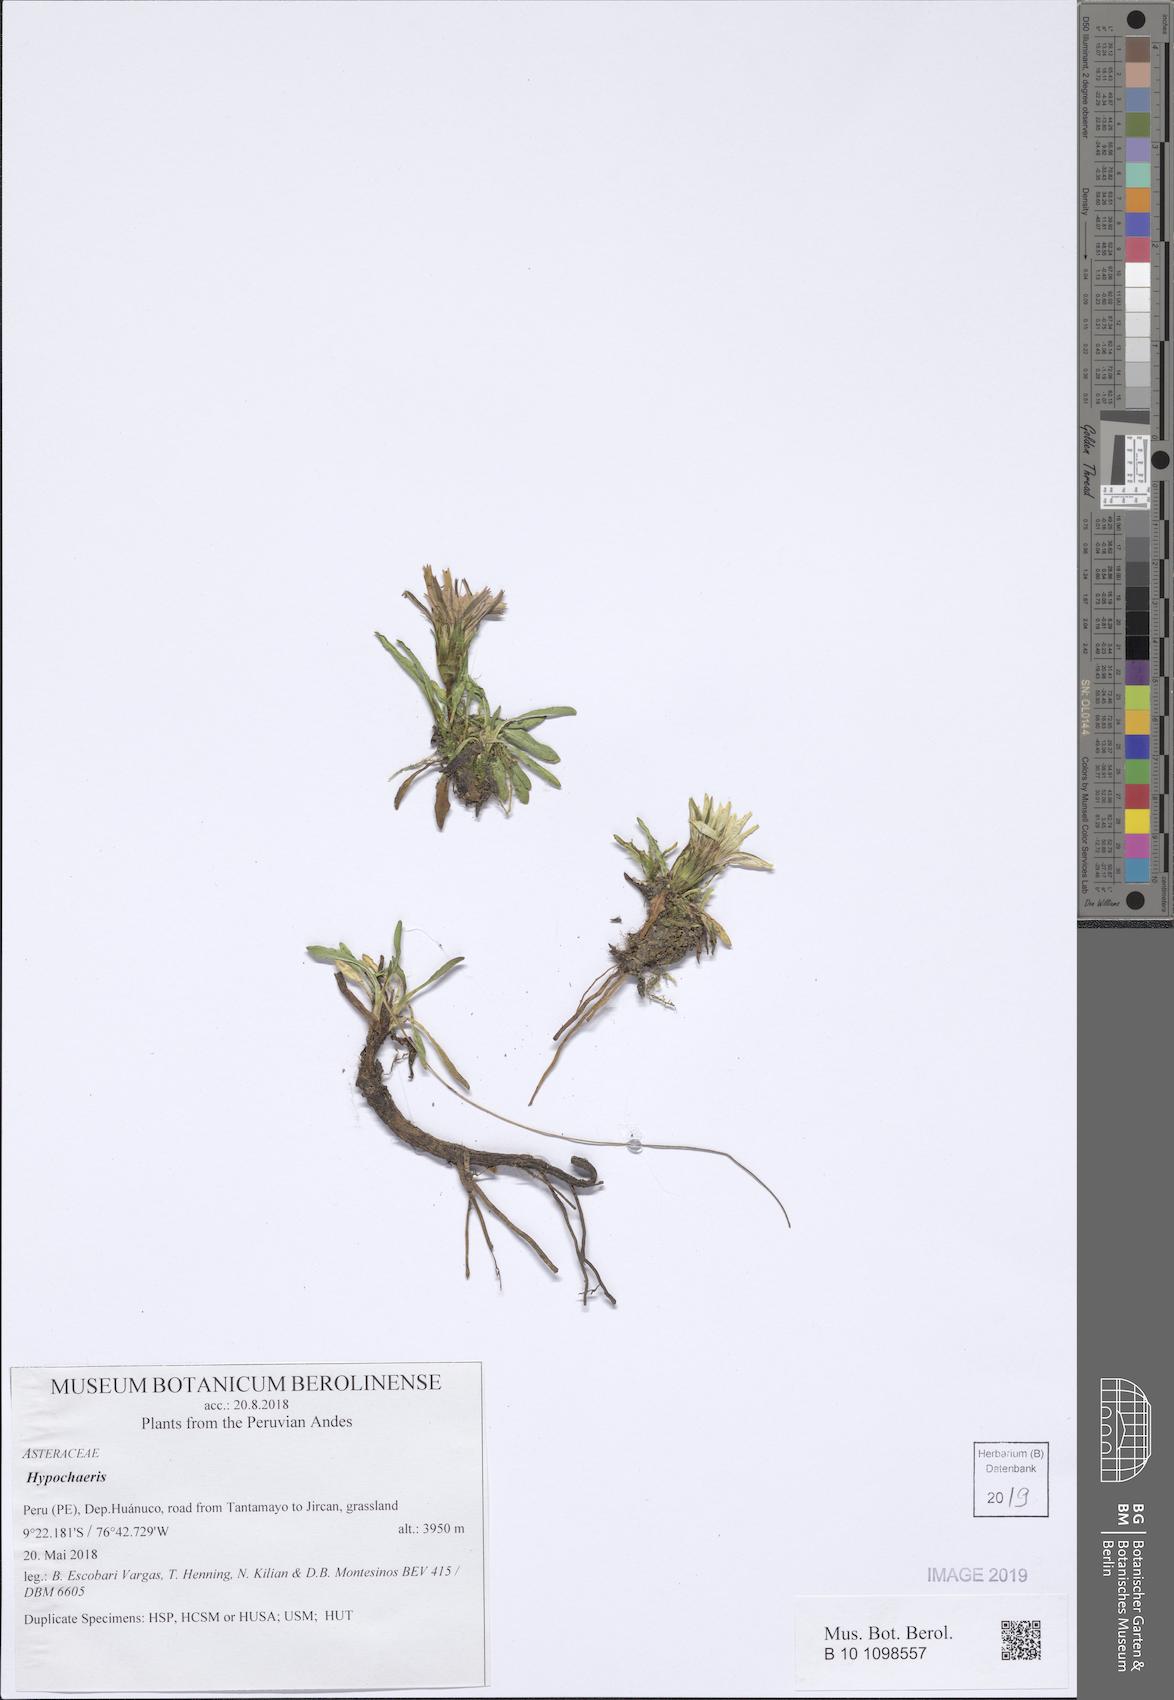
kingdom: Plantae
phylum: Tracheophyta
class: Magnoliopsida
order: Asterales
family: Asteraceae
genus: Hypochaeris
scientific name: Hypochaeris
